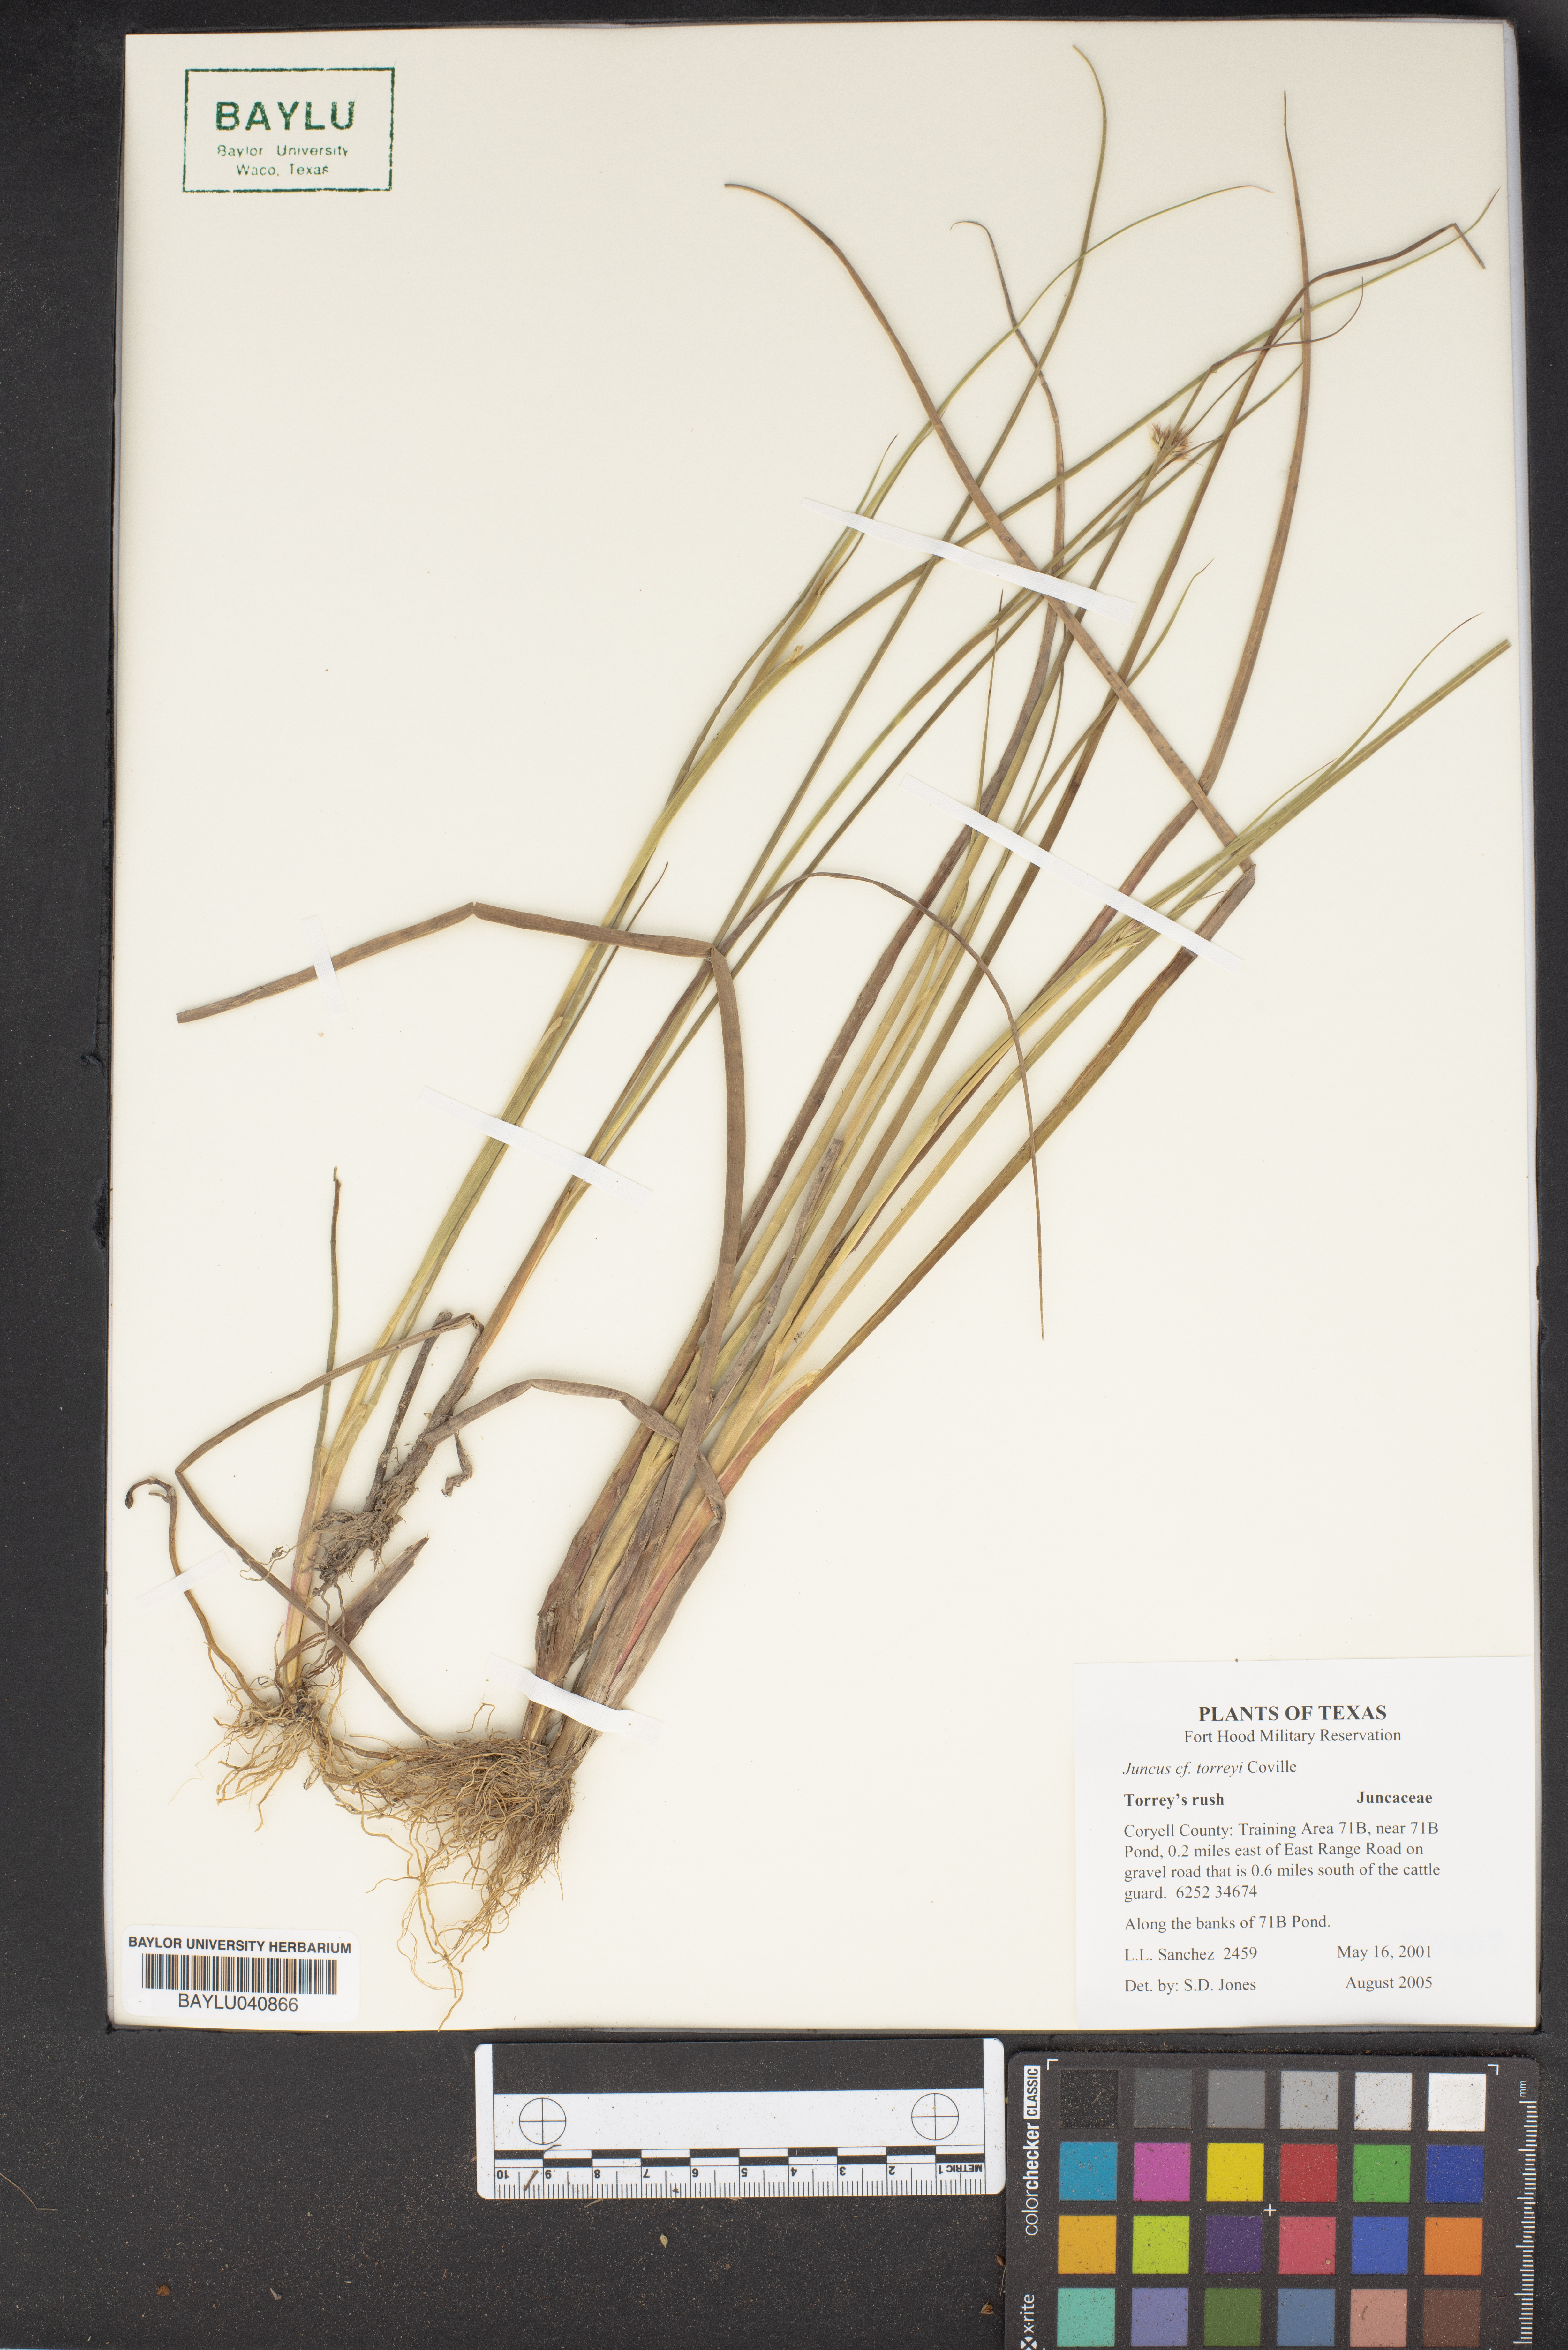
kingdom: Plantae
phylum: Tracheophyta
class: Liliopsida
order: Poales
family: Juncaceae
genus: Juncus
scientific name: Juncus torreyi
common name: Torrey's rush
